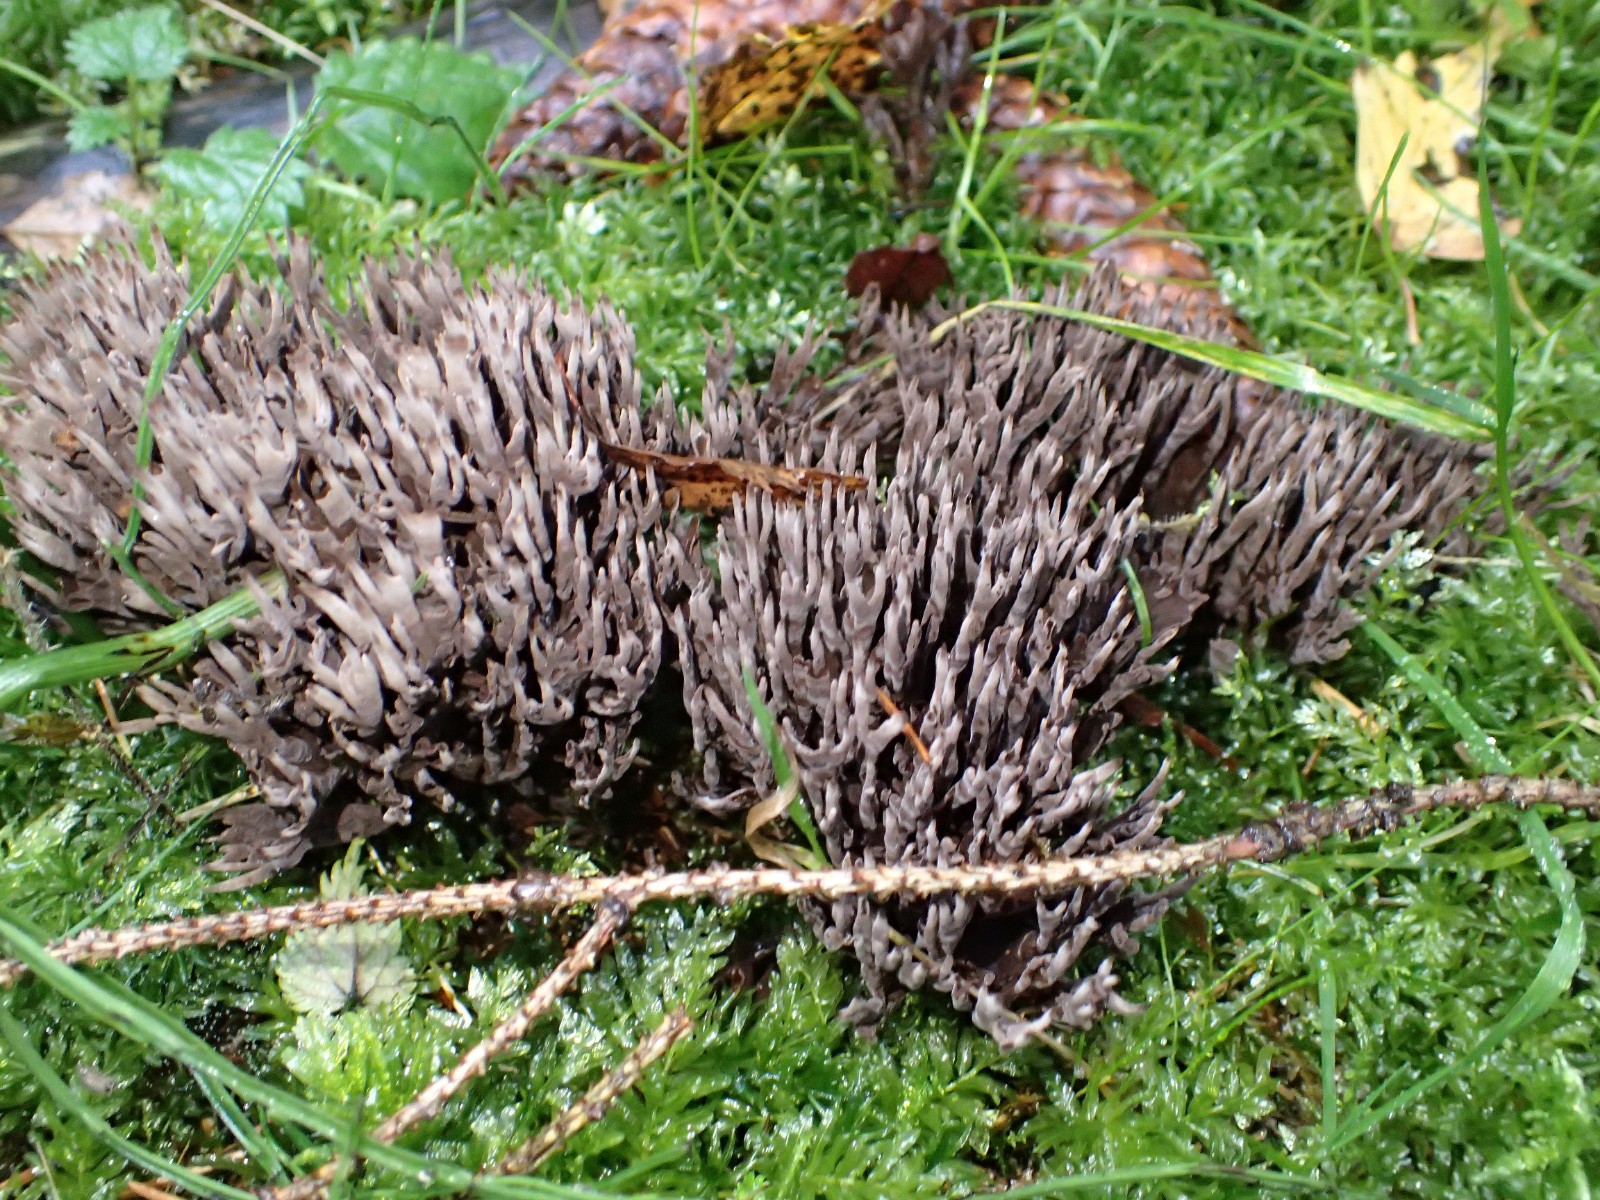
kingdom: Fungi
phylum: Basidiomycota
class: Agaricomycetes
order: Thelephorales
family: Thelephoraceae
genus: Thelephora
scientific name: Thelephora palmata
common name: grenet frynsesvamp
